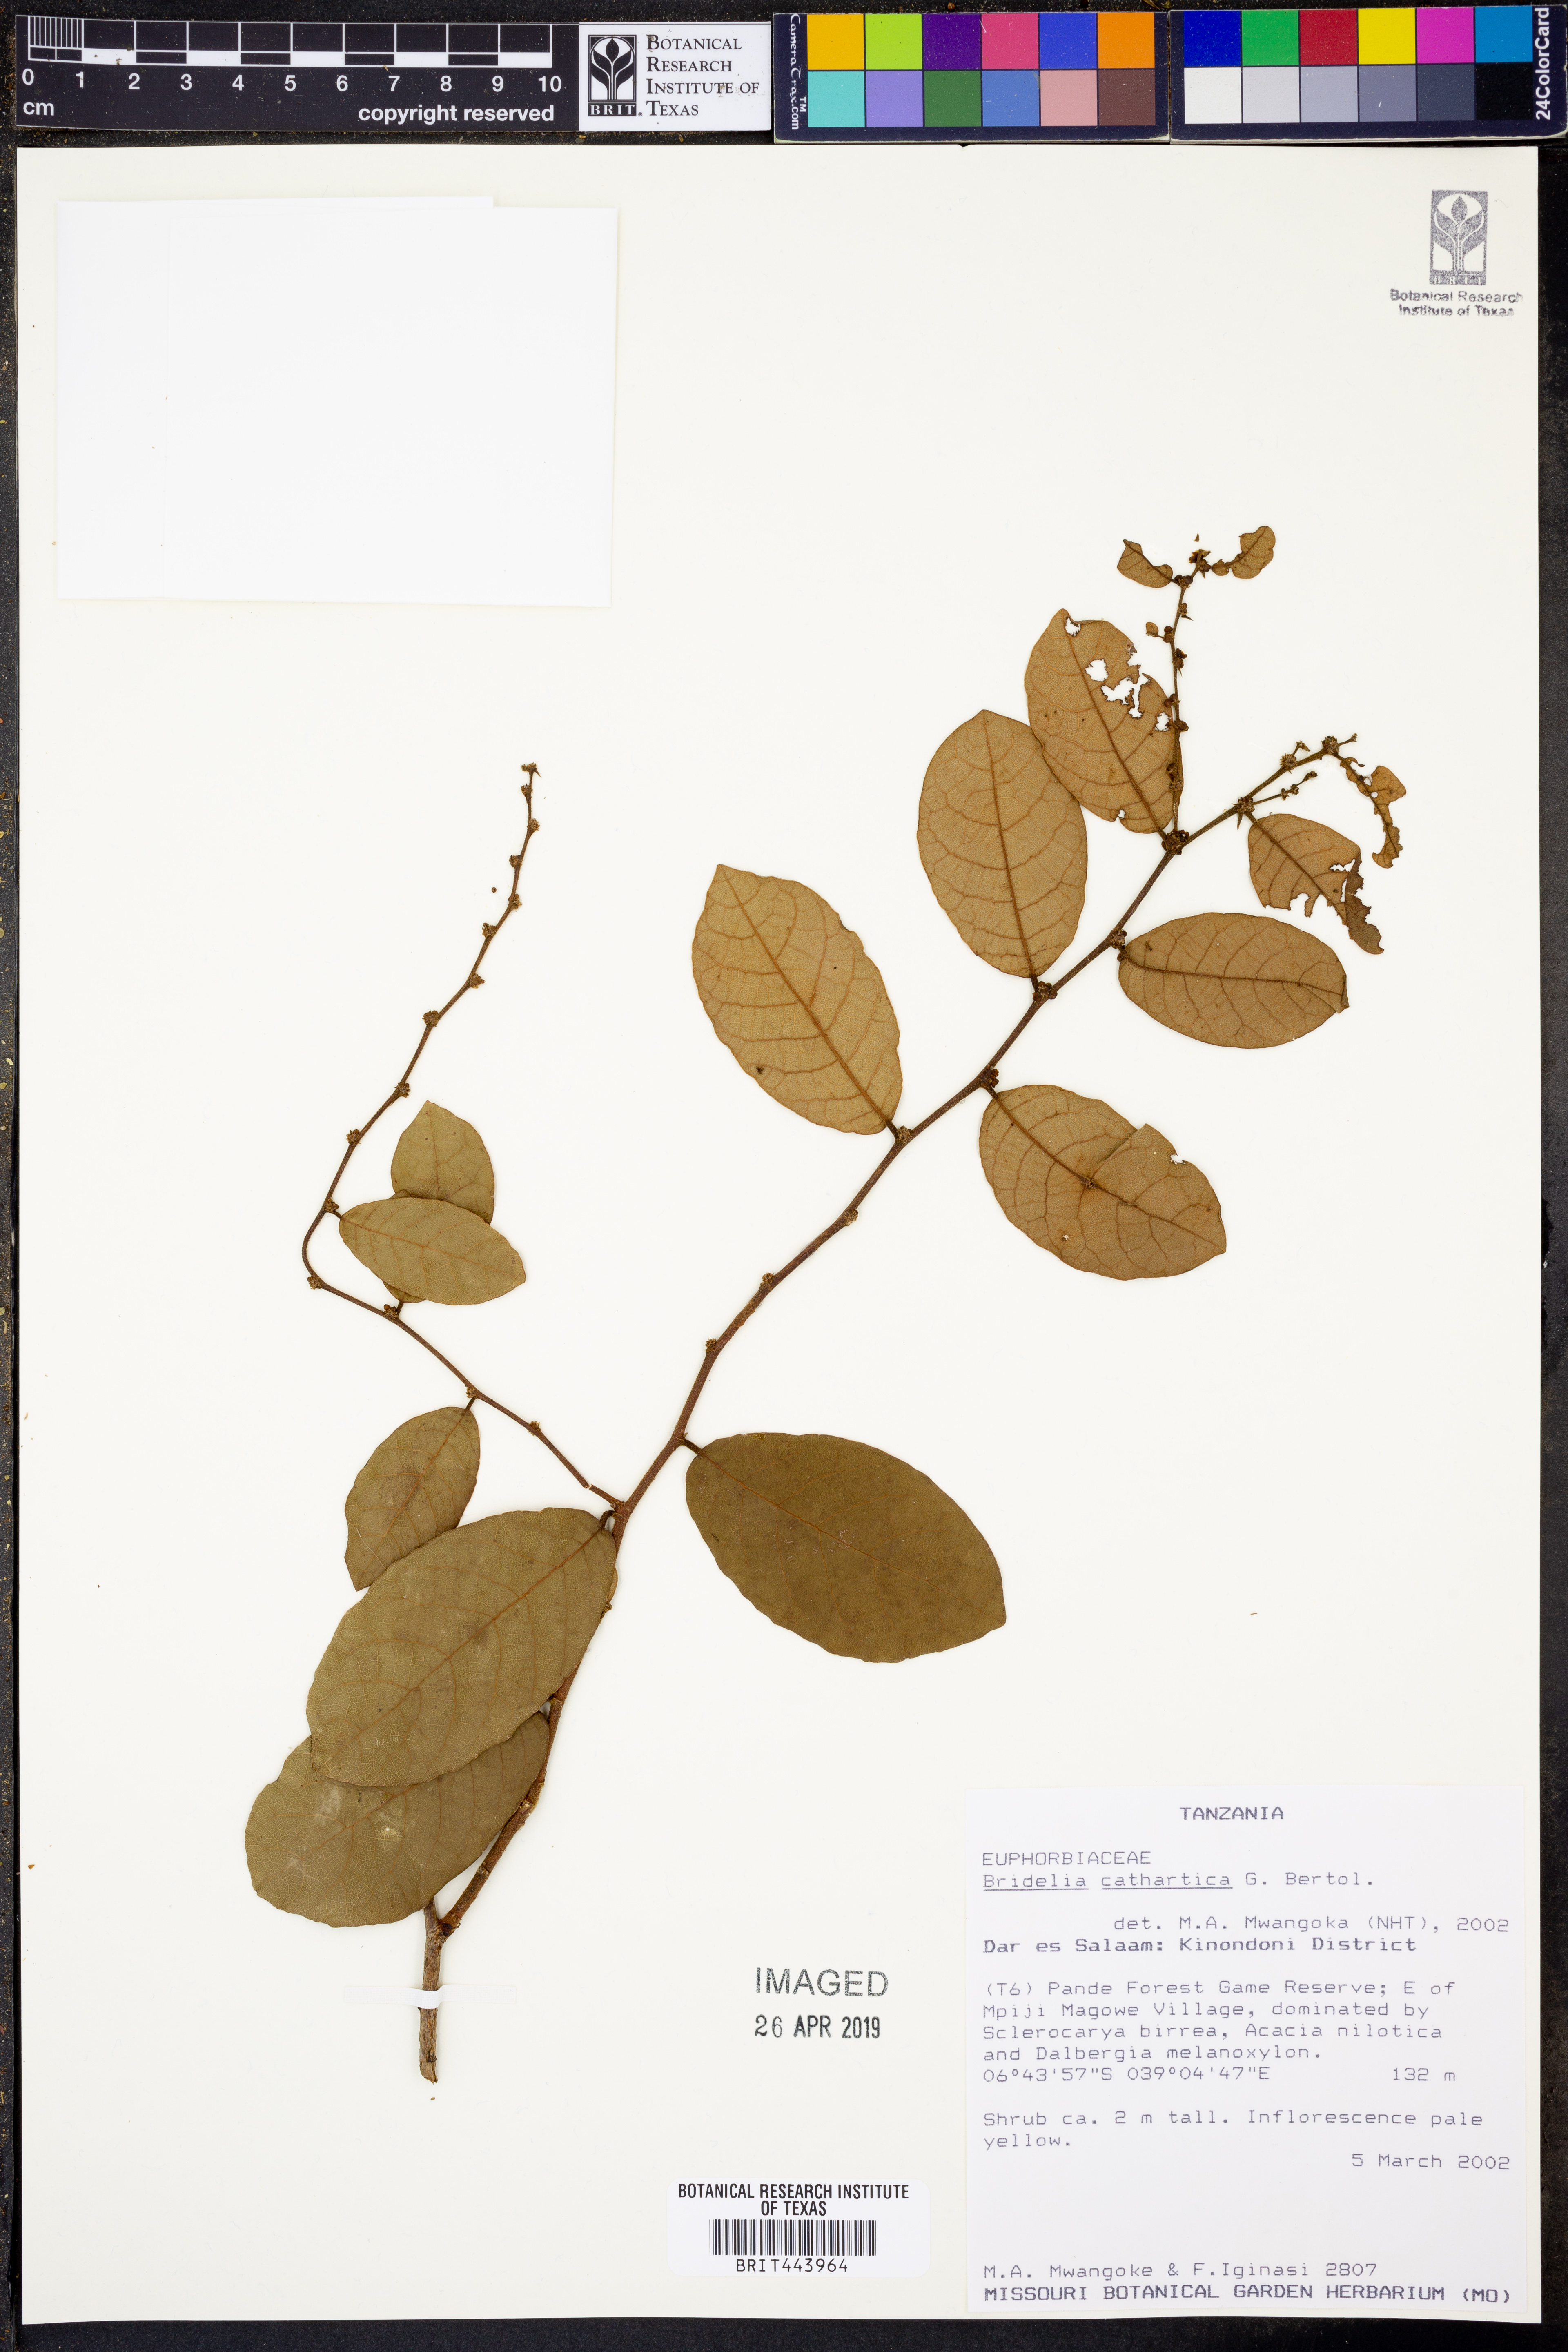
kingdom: Plantae
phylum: Tracheophyta
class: Magnoliopsida
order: Malpighiales
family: Phyllanthaceae
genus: Bridelia
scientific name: Bridelia cathartica
